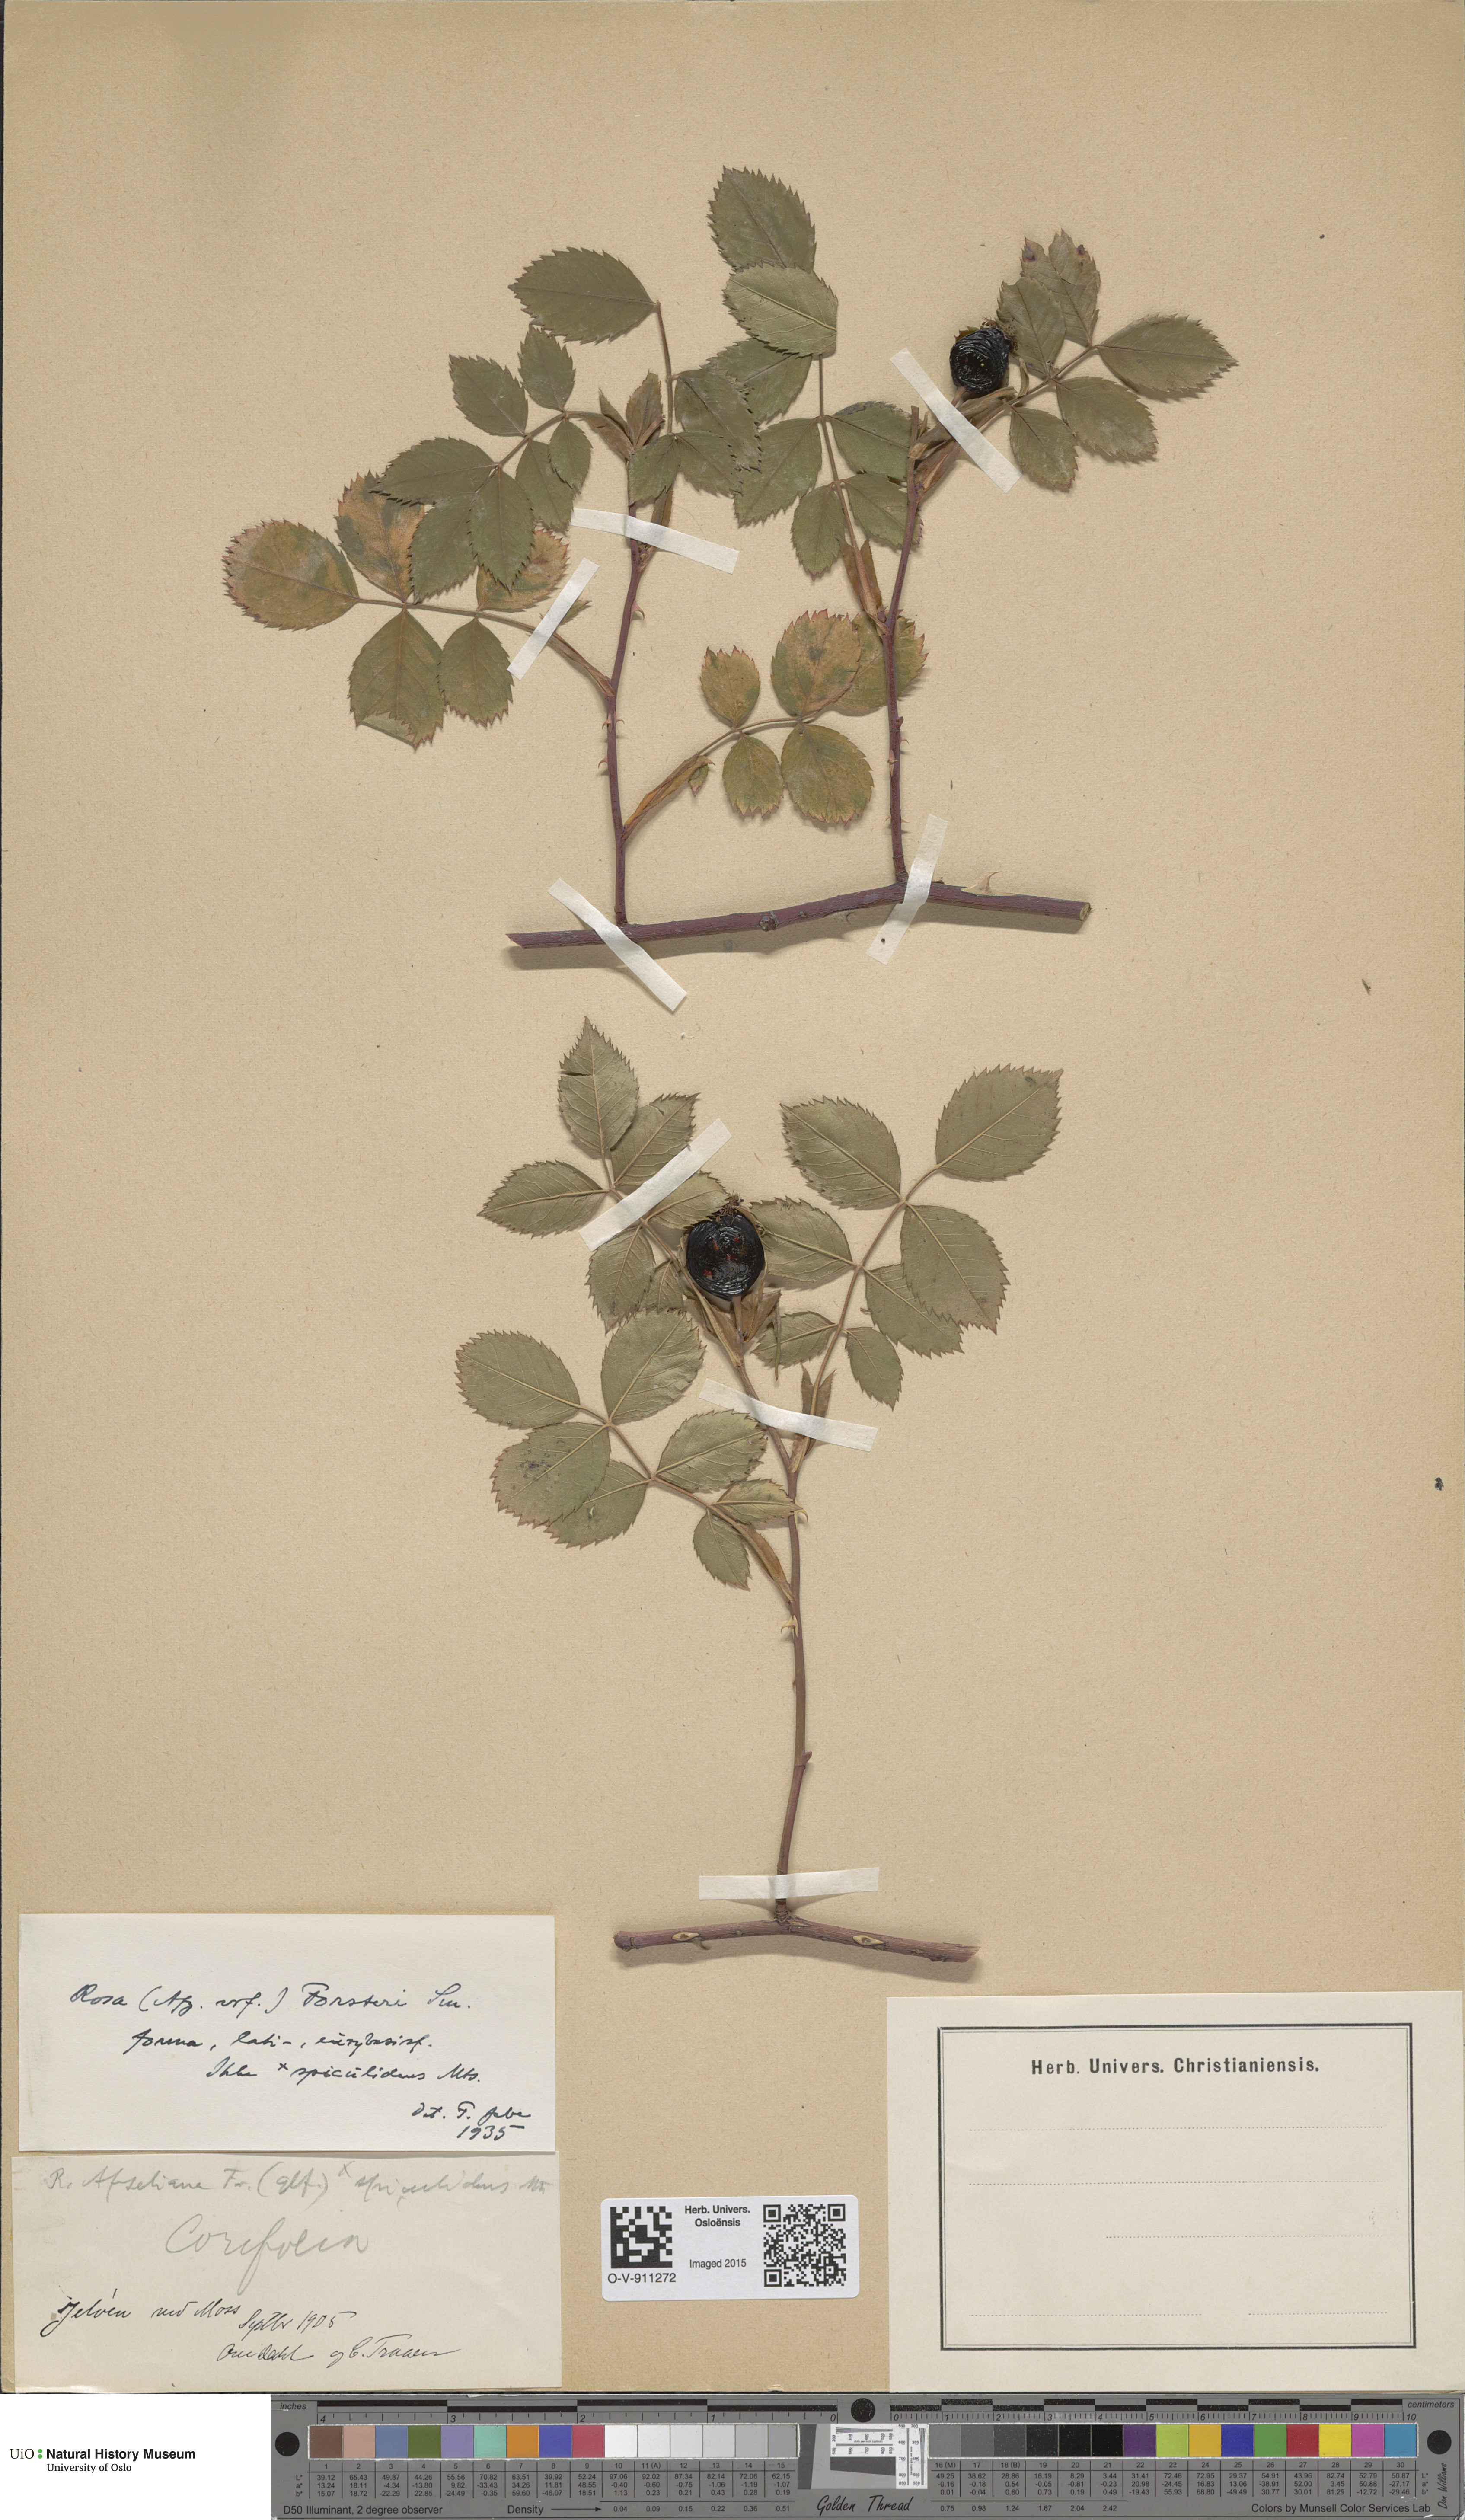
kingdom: Plantae
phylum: Tracheophyta
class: Magnoliopsida
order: Rosales
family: Rosaceae
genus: Rosa
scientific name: Rosa corymbifera
